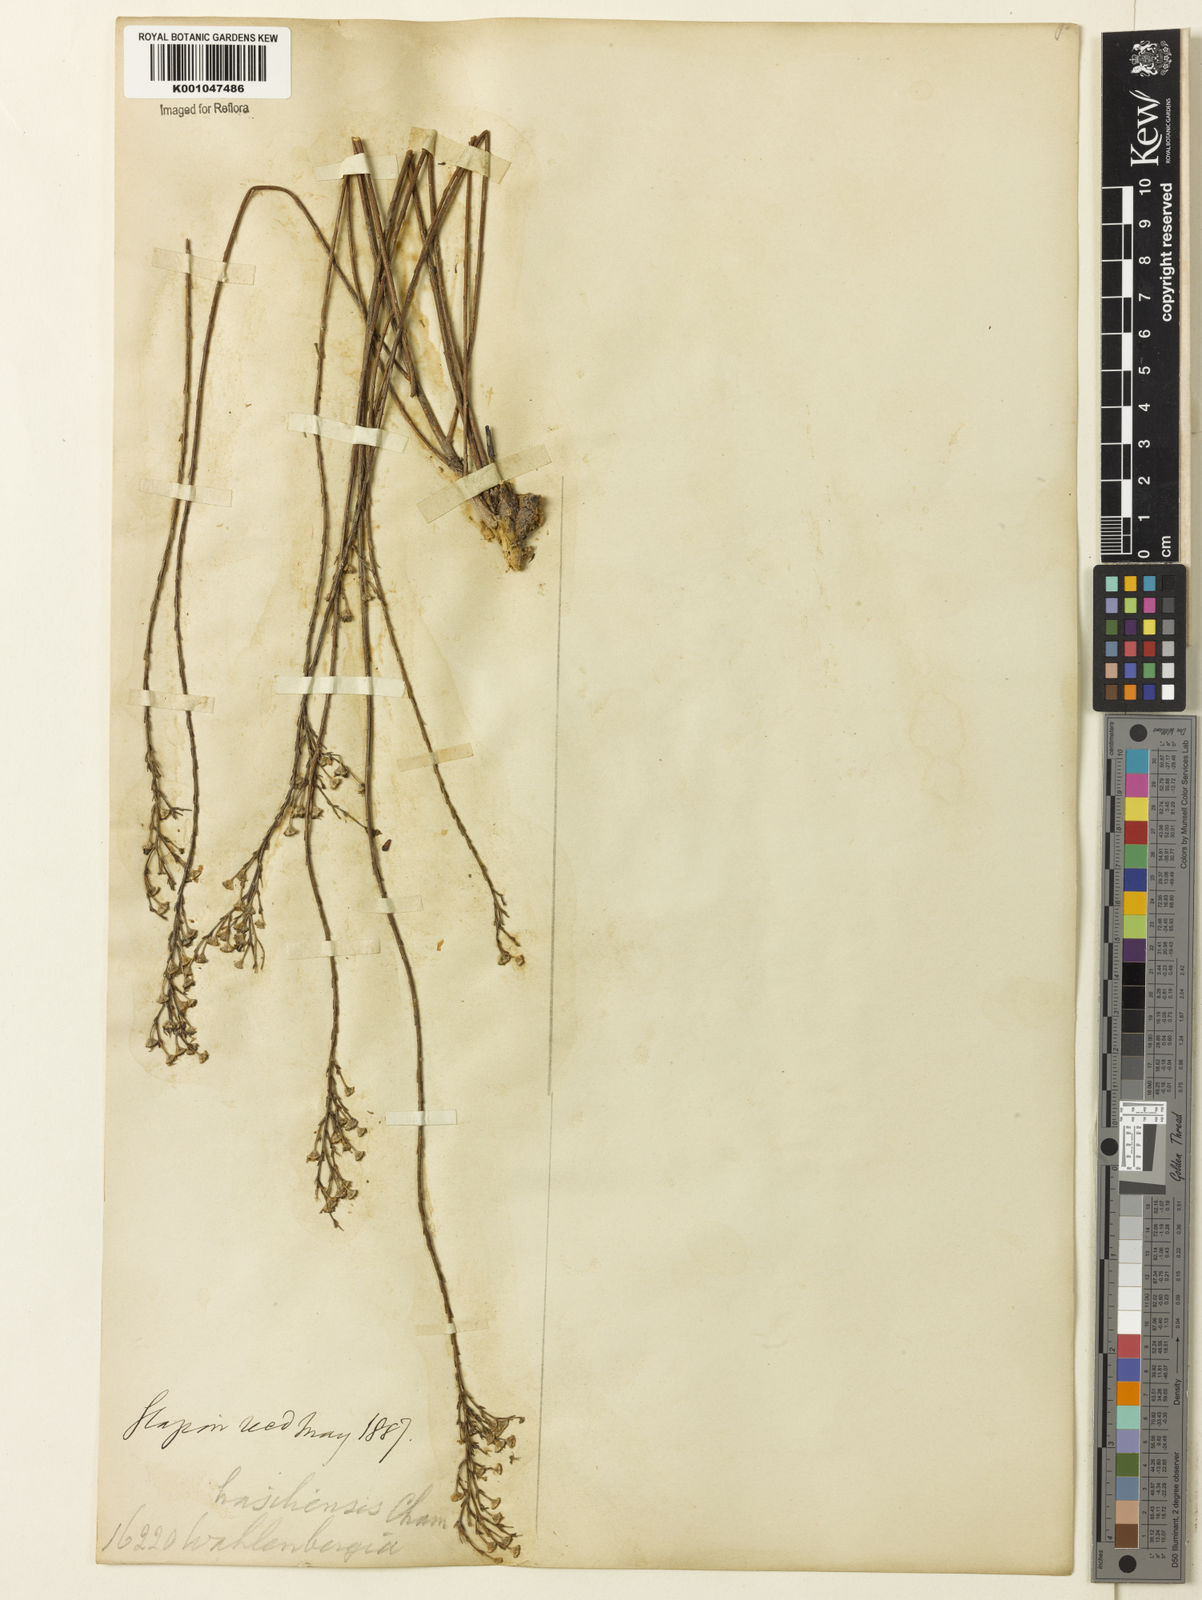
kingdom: Plantae
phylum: Tracheophyta
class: Magnoliopsida
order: Asterales
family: Campanulaceae
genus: Wahlenbergia
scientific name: Wahlenbergia brasiliensis
